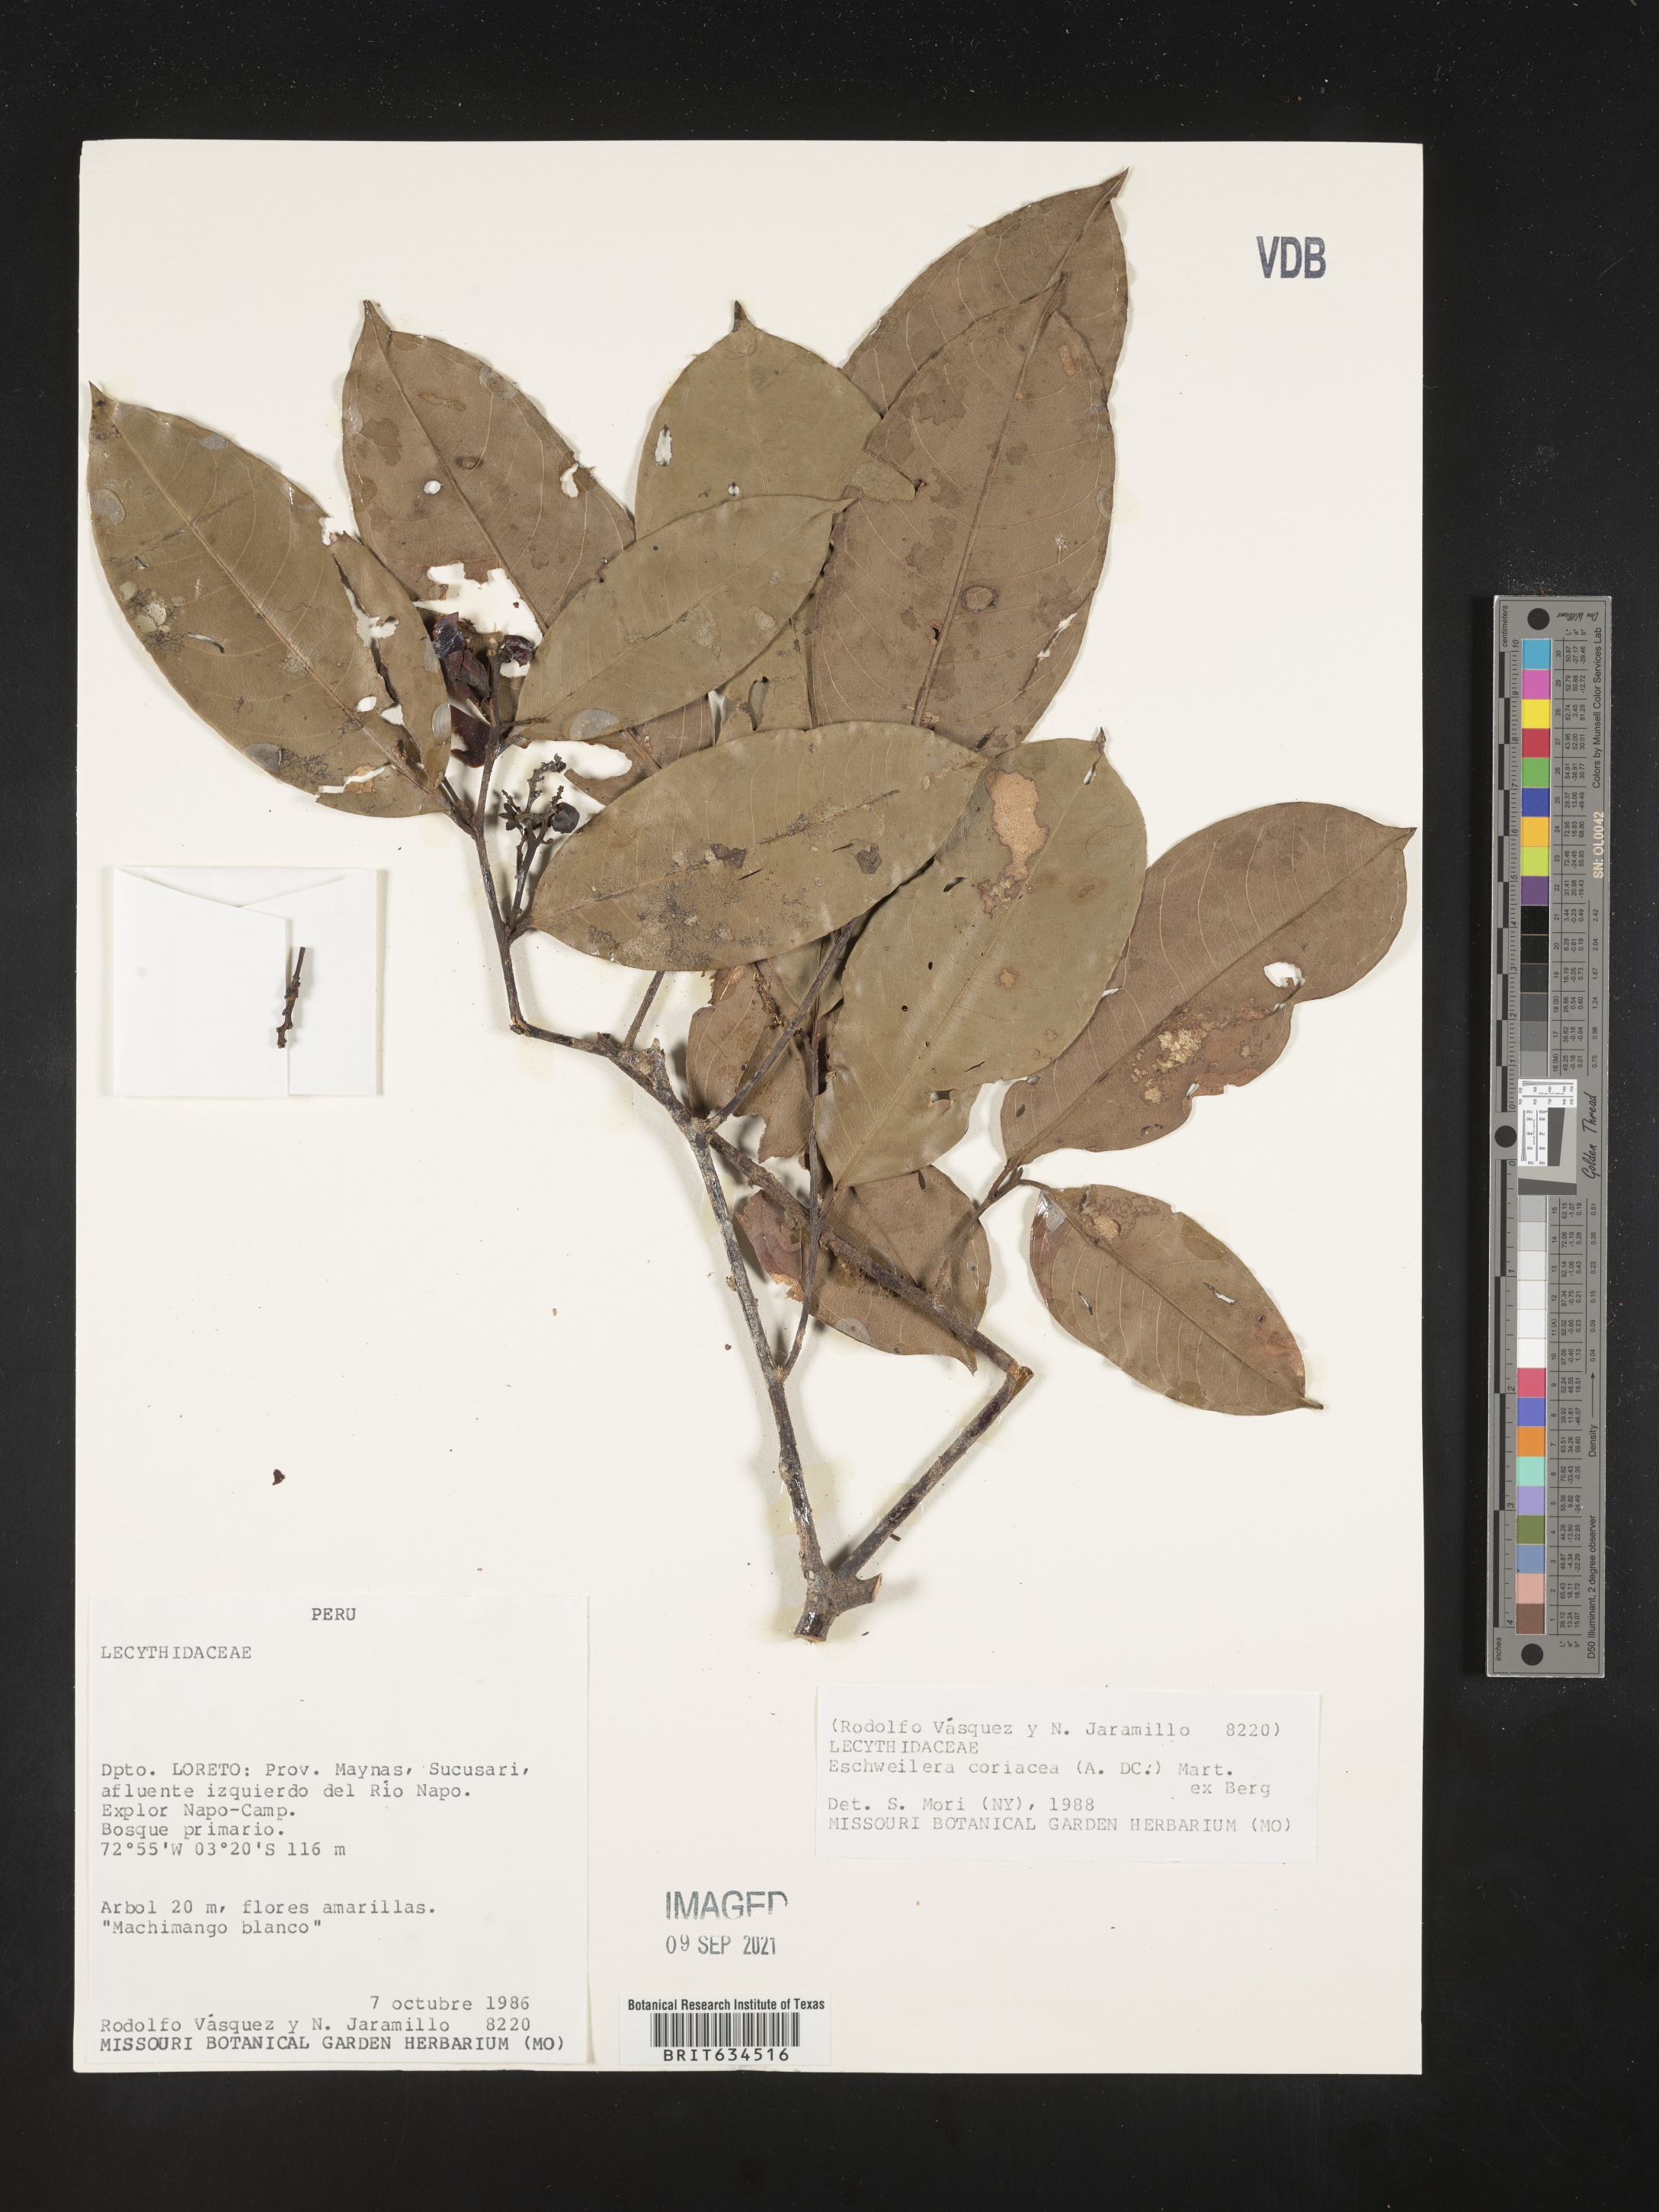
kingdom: Plantae
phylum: Tracheophyta
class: Magnoliopsida
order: Ericales
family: Lecythidaceae
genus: Eschweilera
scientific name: Eschweilera
